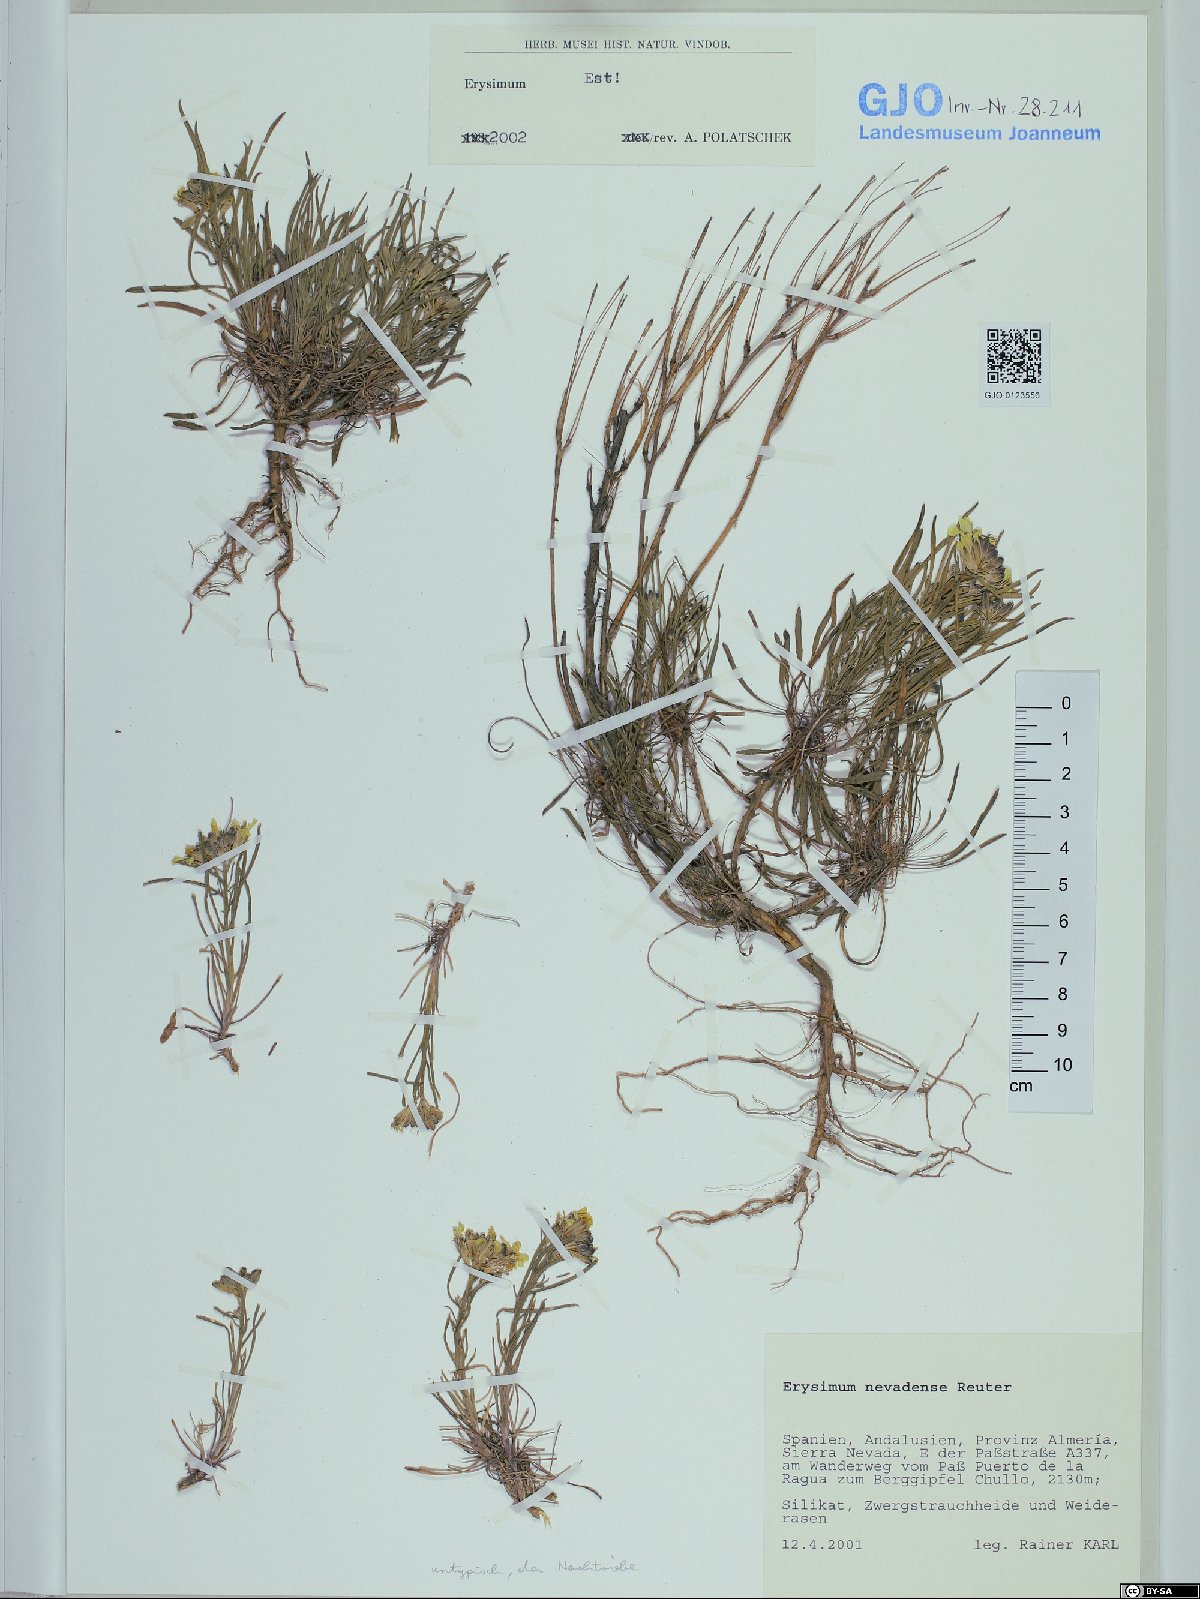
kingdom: Plantae
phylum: Tracheophyta
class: Magnoliopsida
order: Brassicales
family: Brassicaceae
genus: Erysimum
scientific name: Erysimum nevadense
